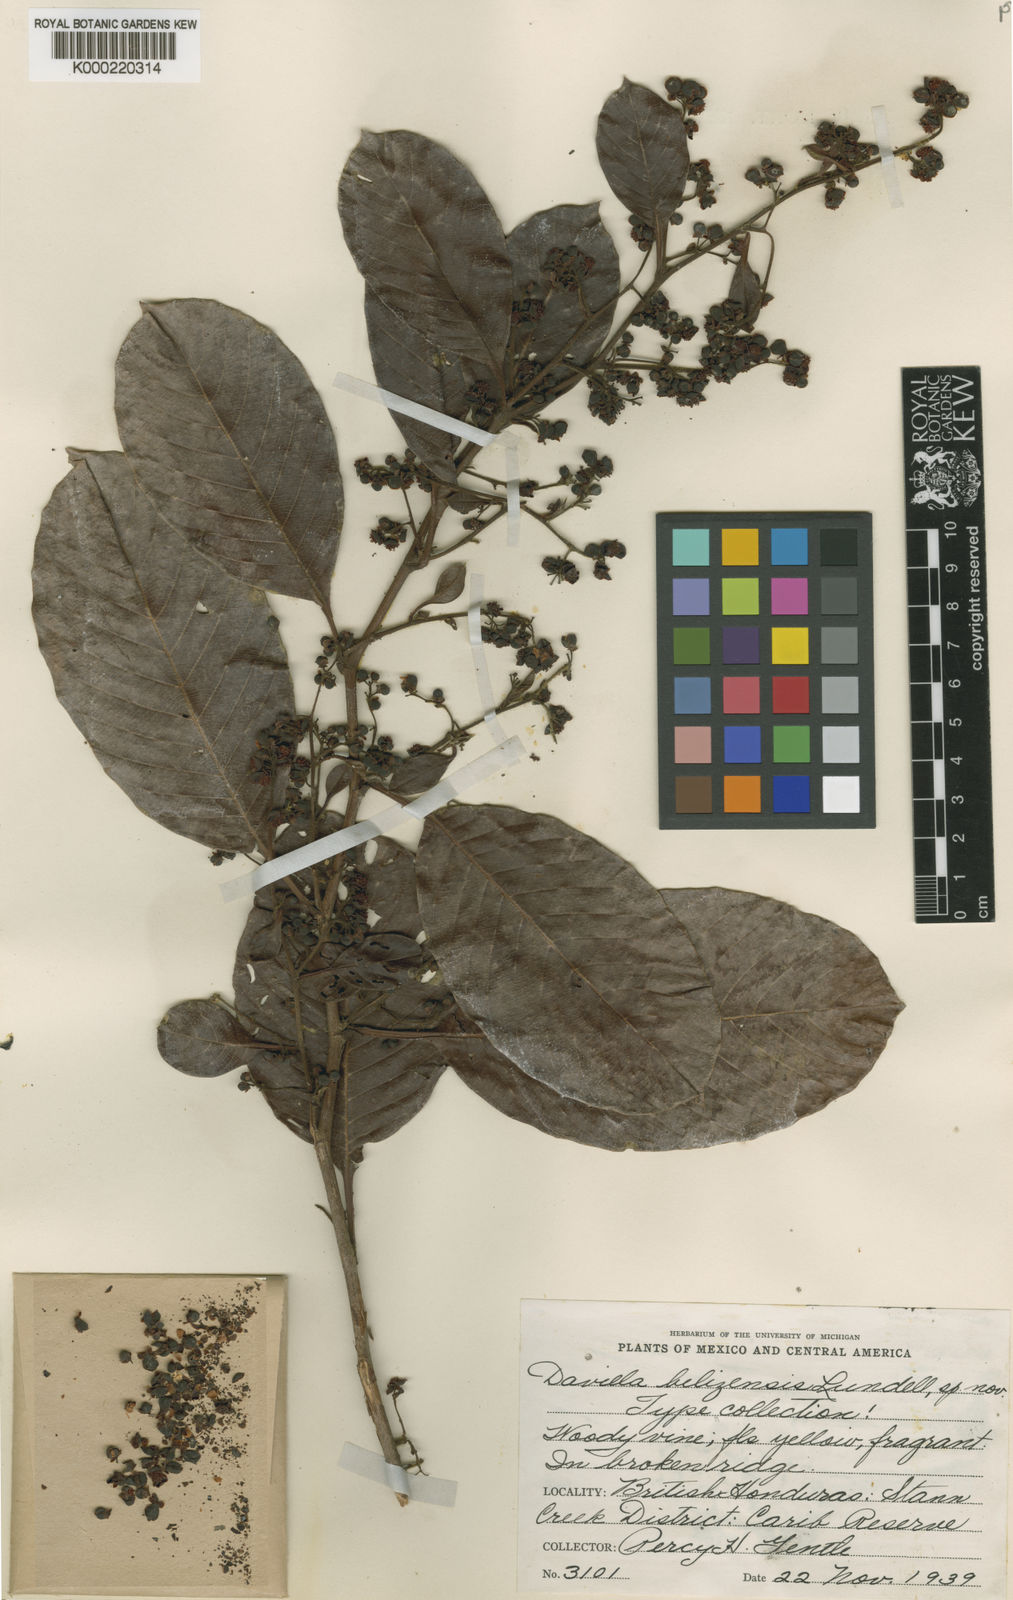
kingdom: Plantae
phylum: Tracheophyta
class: Magnoliopsida
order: Dilleniales
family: Dilleniaceae
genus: Davilla
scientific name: Davilla
